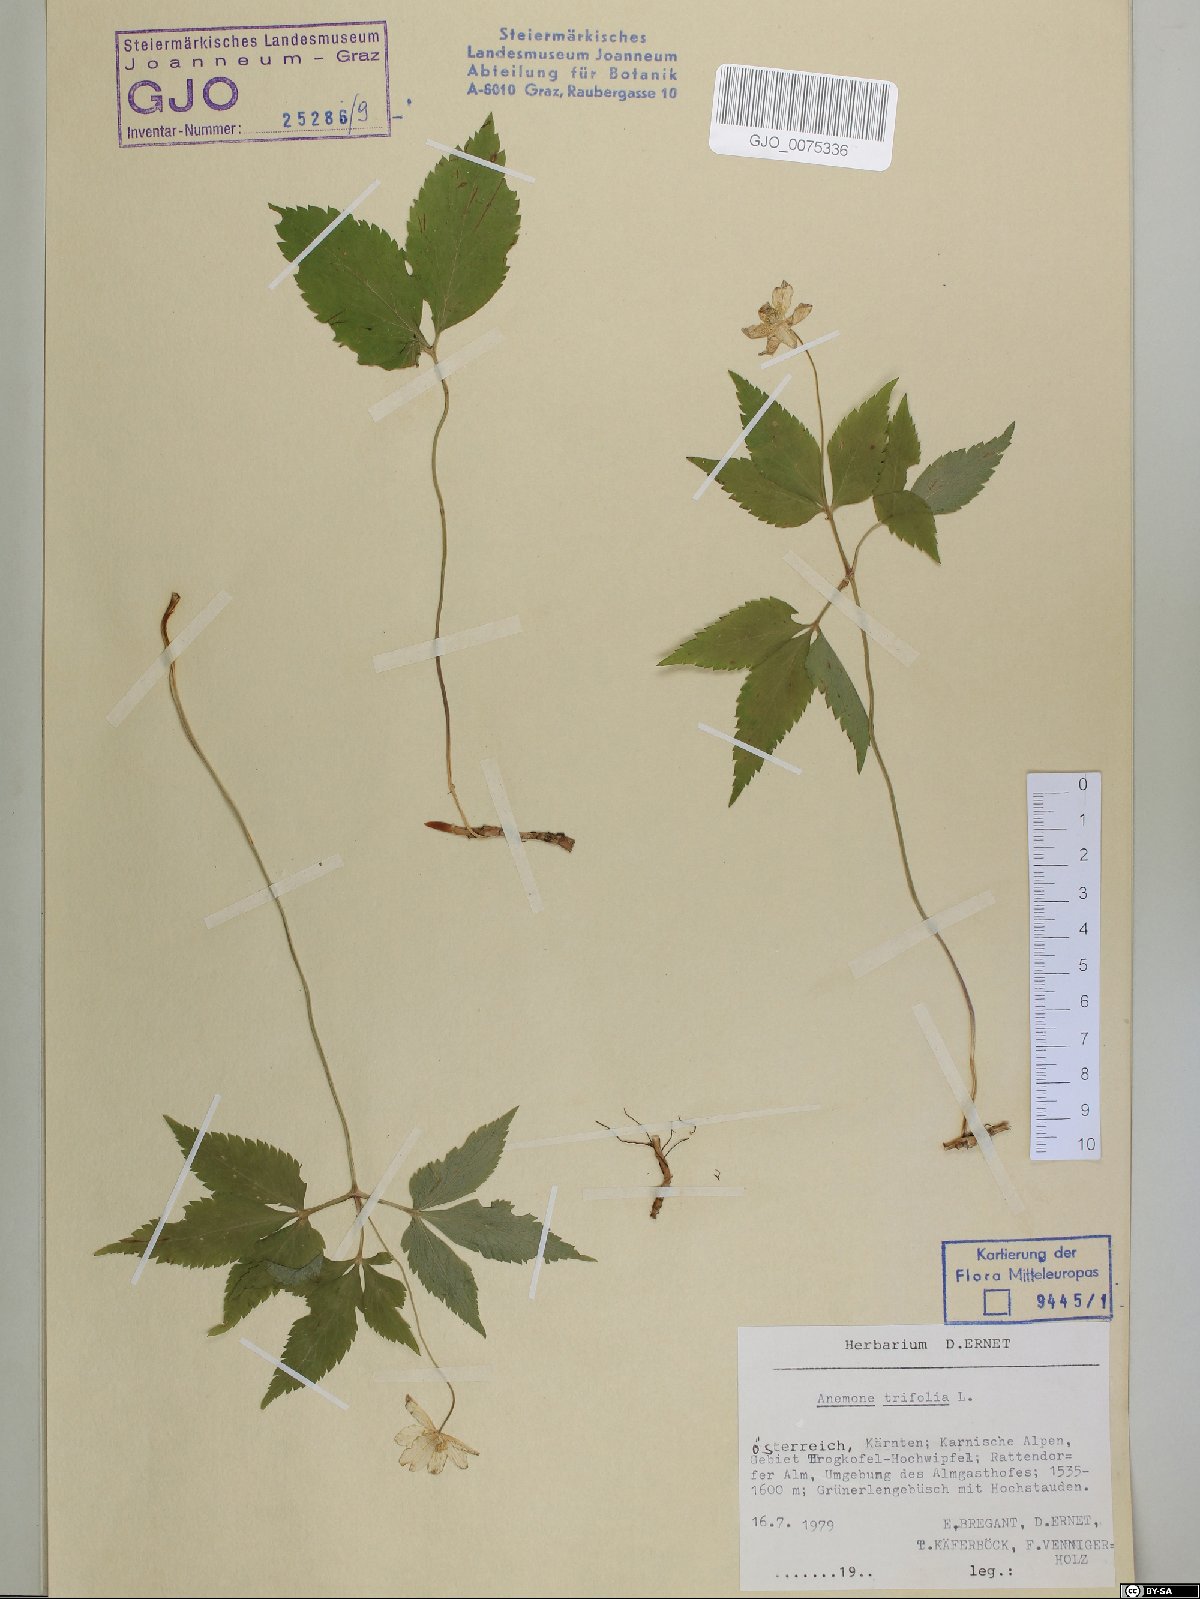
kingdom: Plantae
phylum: Tracheophyta
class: Magnoliopsida
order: Ranunculales
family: Ranunculaceae
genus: Anemone
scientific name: Anemone trifolia
